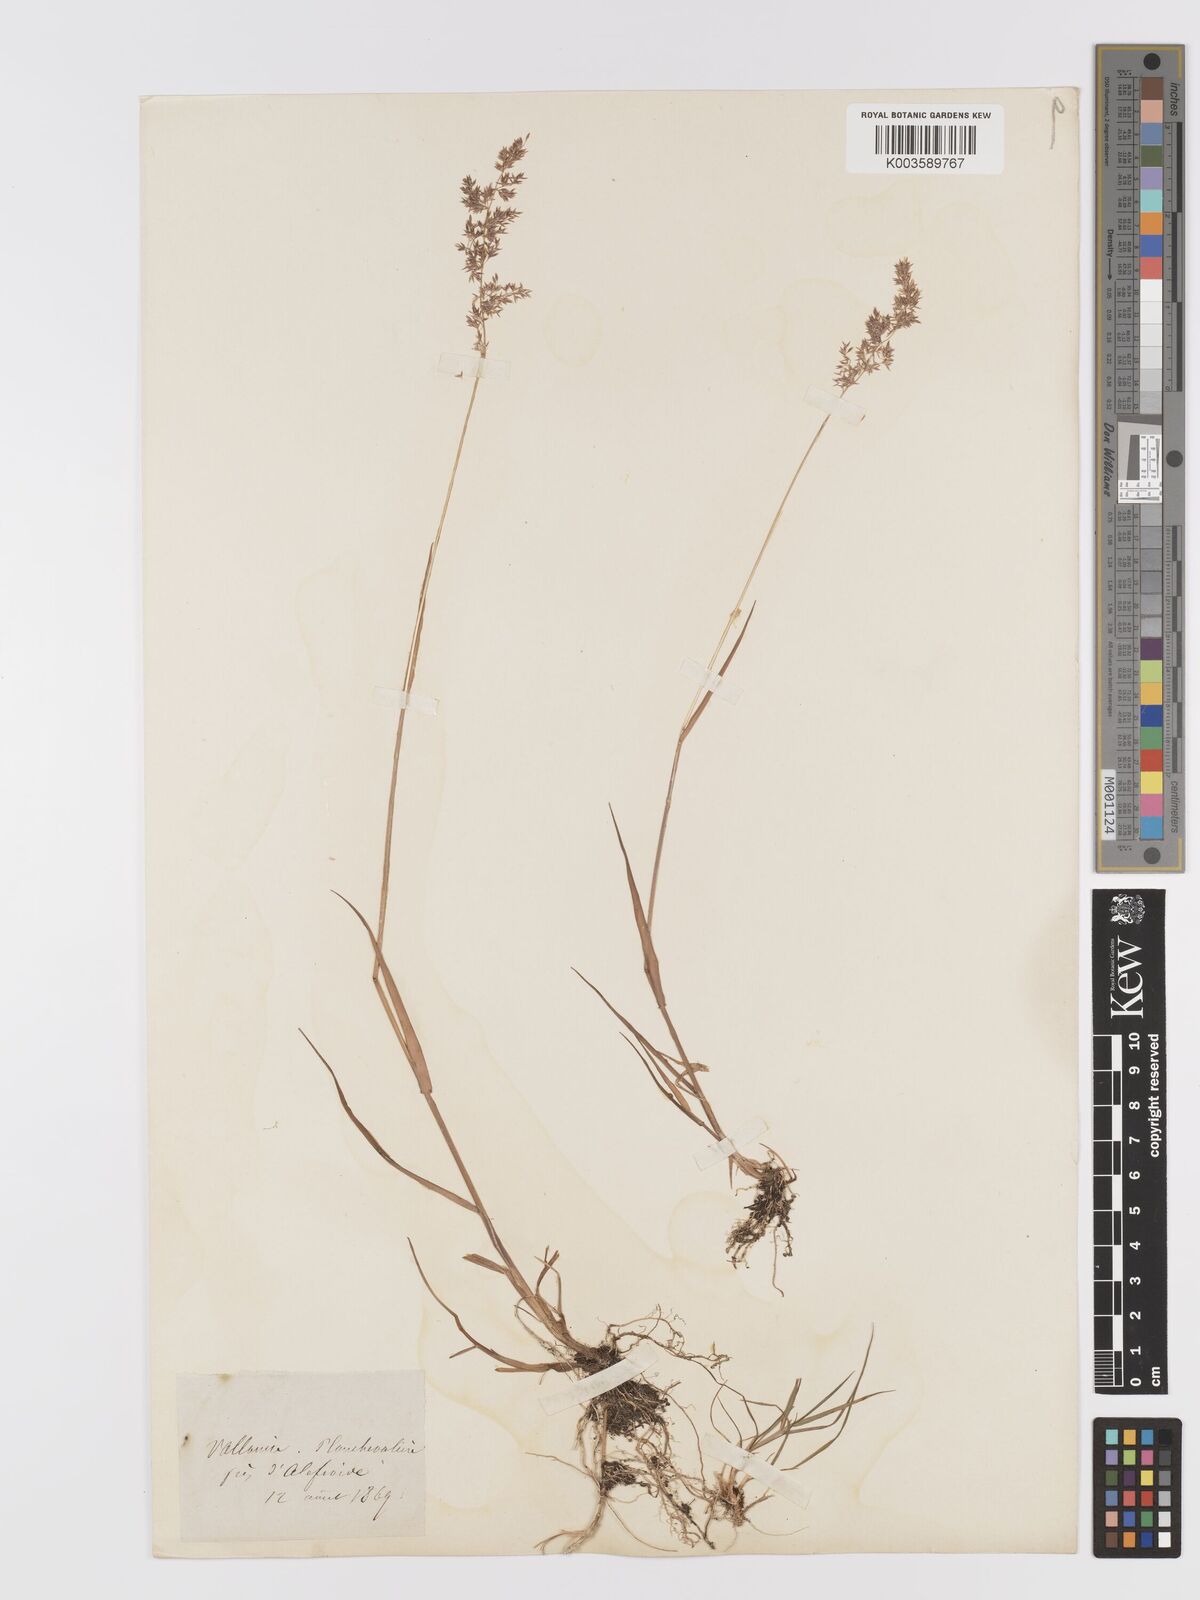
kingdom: Plantae
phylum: Tracheophyta
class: Liliopsida
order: Poales
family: Poaceae
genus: Agrostis
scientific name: Agrostis
